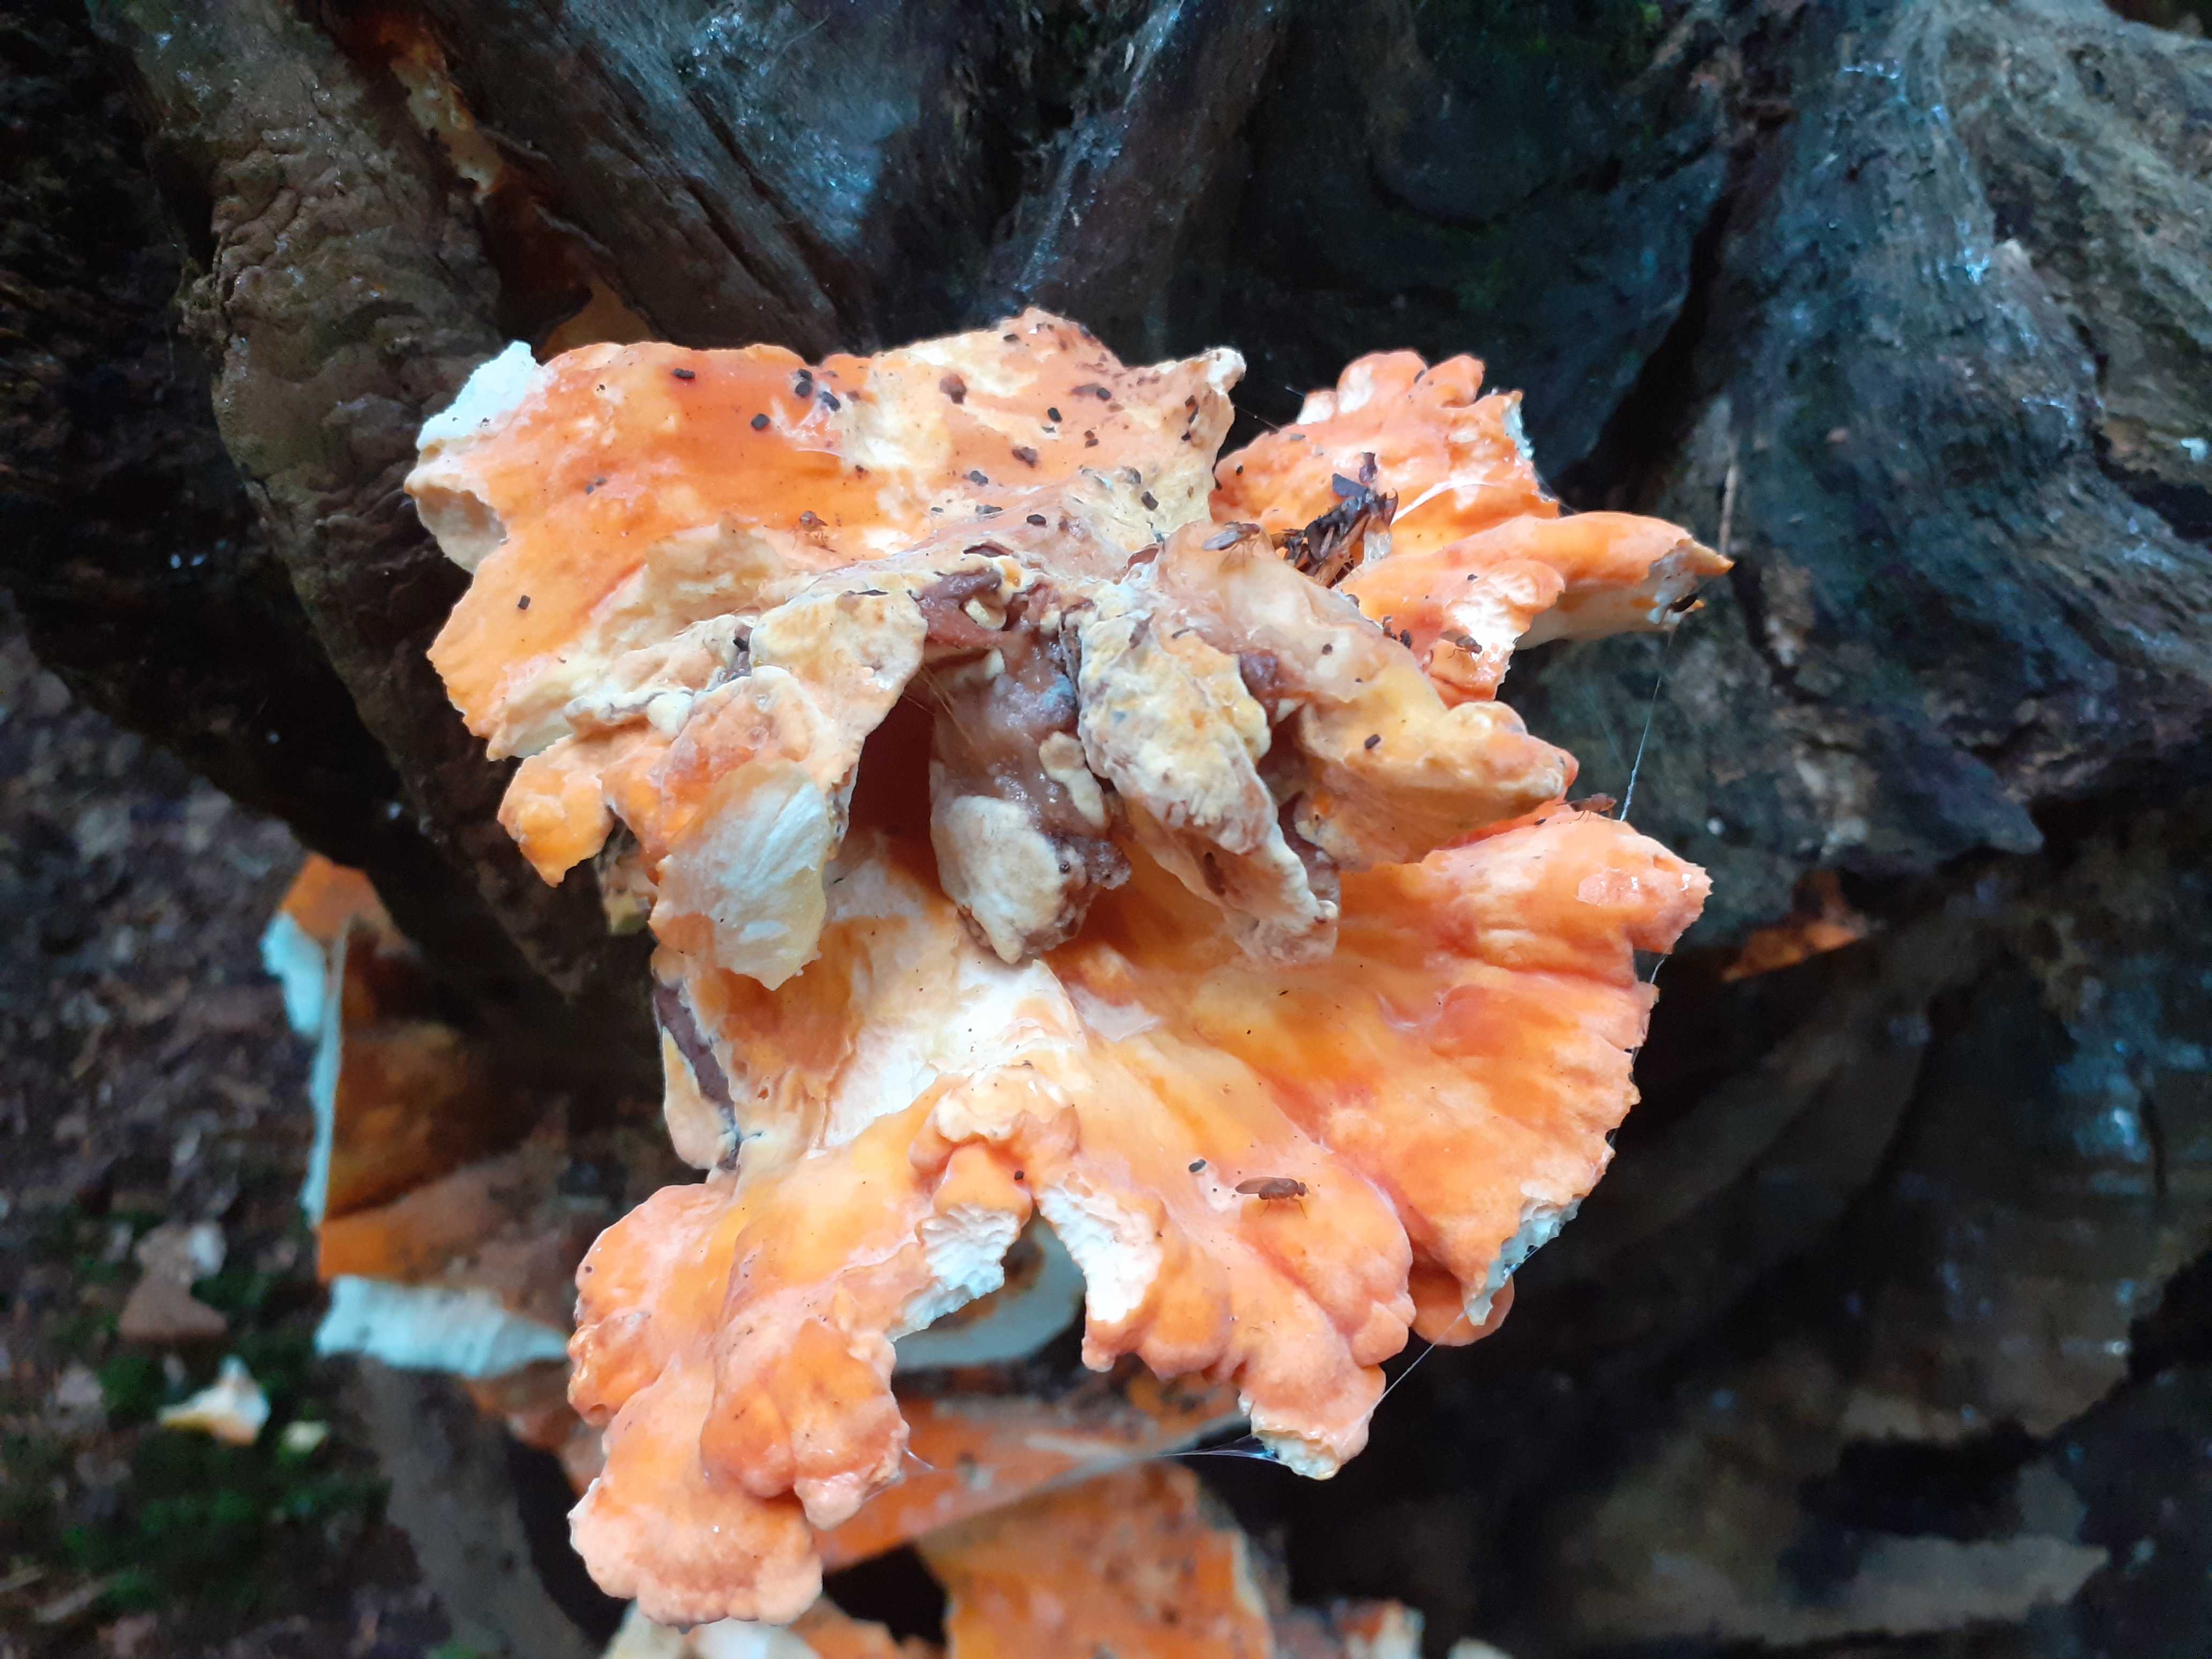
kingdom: Fungi
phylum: Basidiomycota
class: Agaricomycetes
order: Polyporales
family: Laetiporaceae
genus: Laetiporus
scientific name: Laetiporus sulphureus
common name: svovlporesvamp
